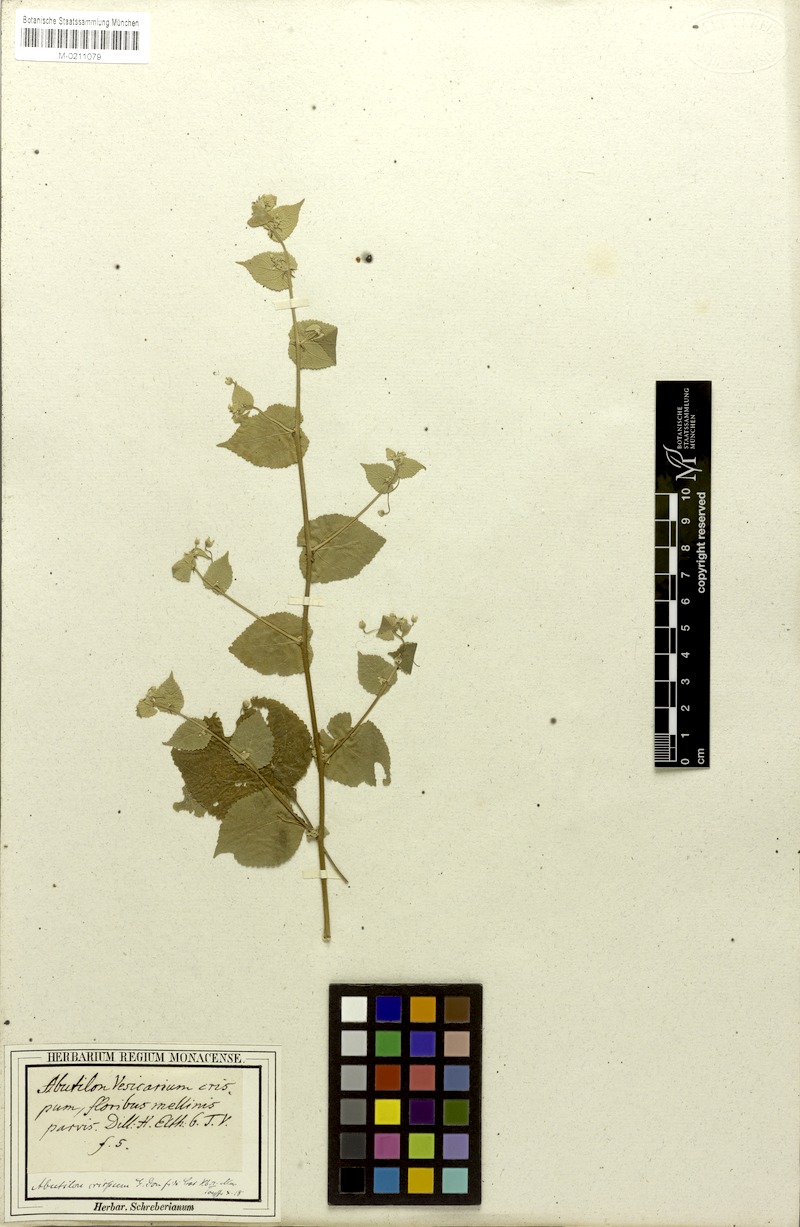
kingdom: Plantae
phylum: Tracheophyta
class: Magnoliopsida
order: Malvales
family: Malvaceae
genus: Herissantia
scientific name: Herissantia crispa
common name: Bladdermallow
